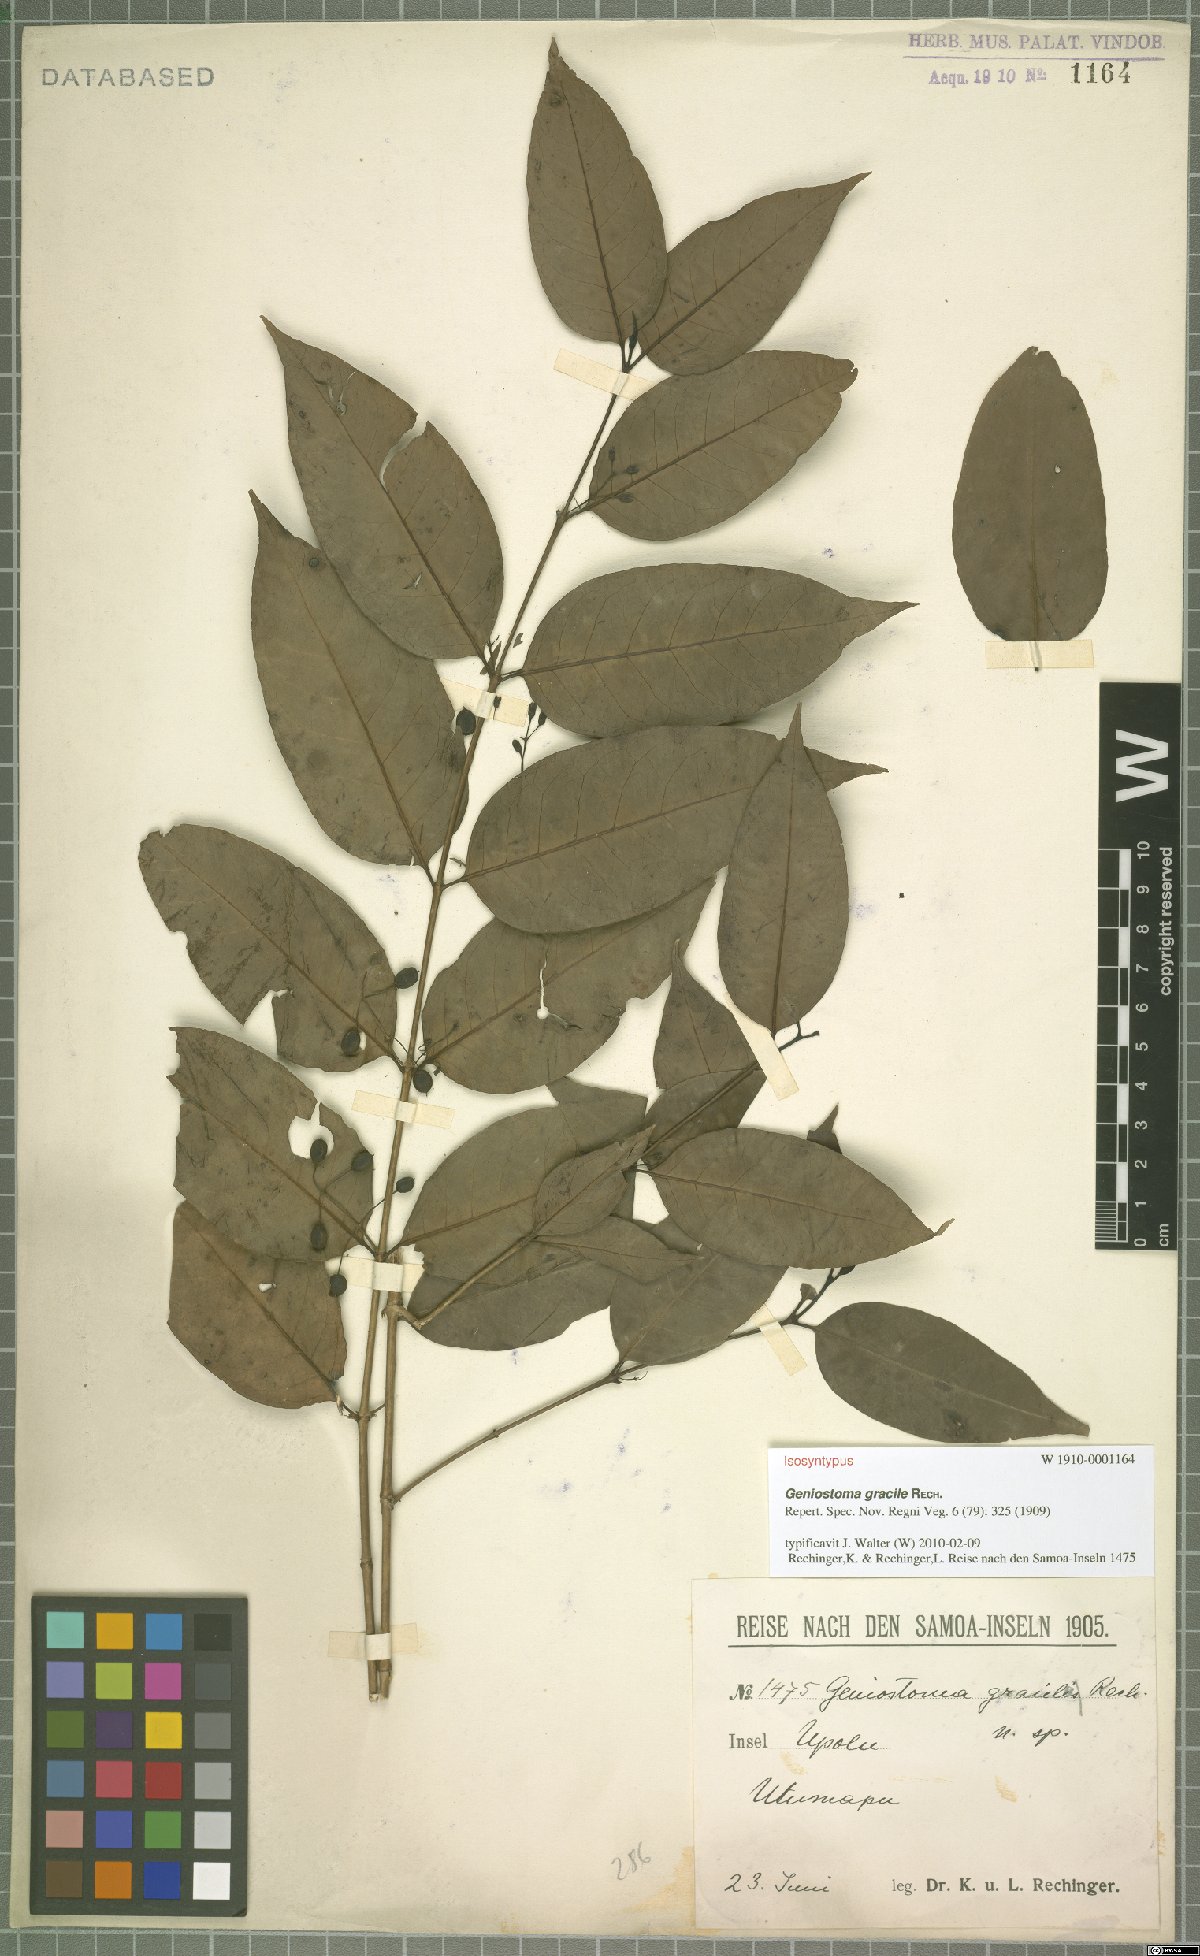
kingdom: Plantae
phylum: Tracheophyta
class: Magnoliopsida
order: Gentianales
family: Loganiaceae
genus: Geniostoma
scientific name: Geniostoma rupestre
